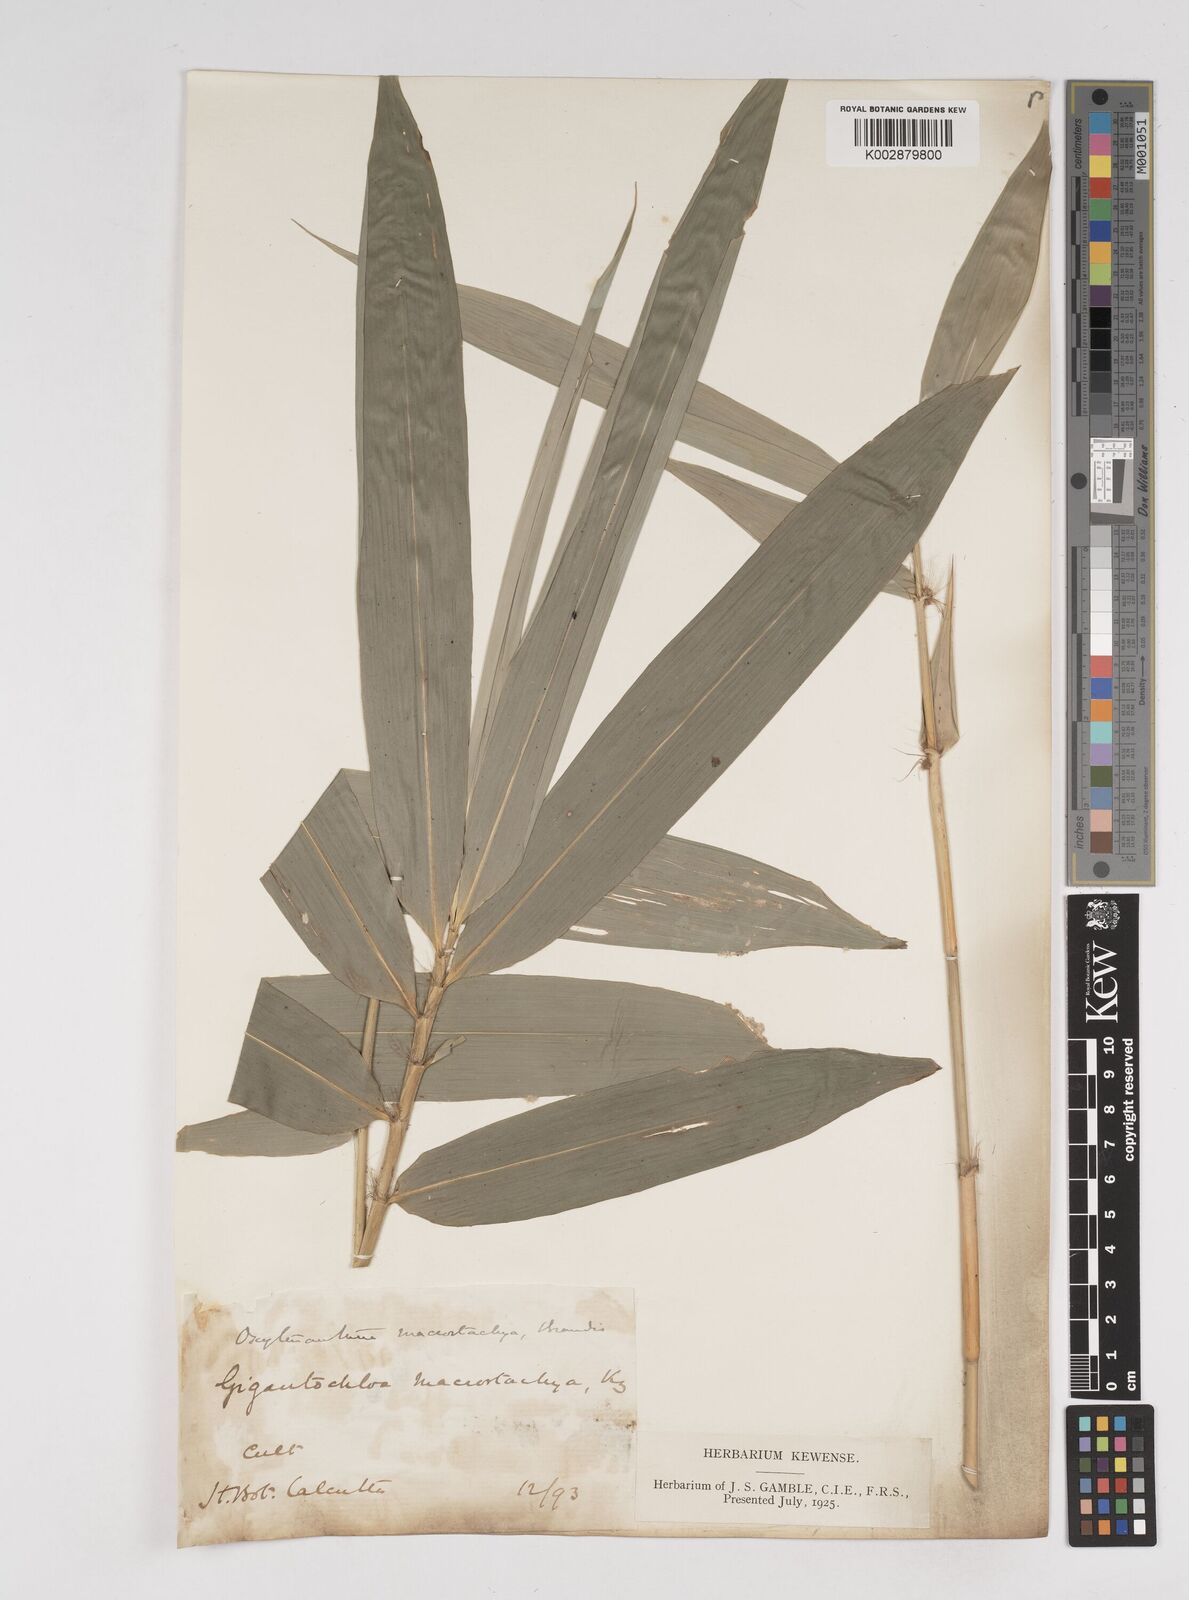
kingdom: Plantae
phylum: Tracheophyta
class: Liliopsida
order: Poales
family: Poaceae
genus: Gigantochloa
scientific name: Gigantochloa macrostachya
